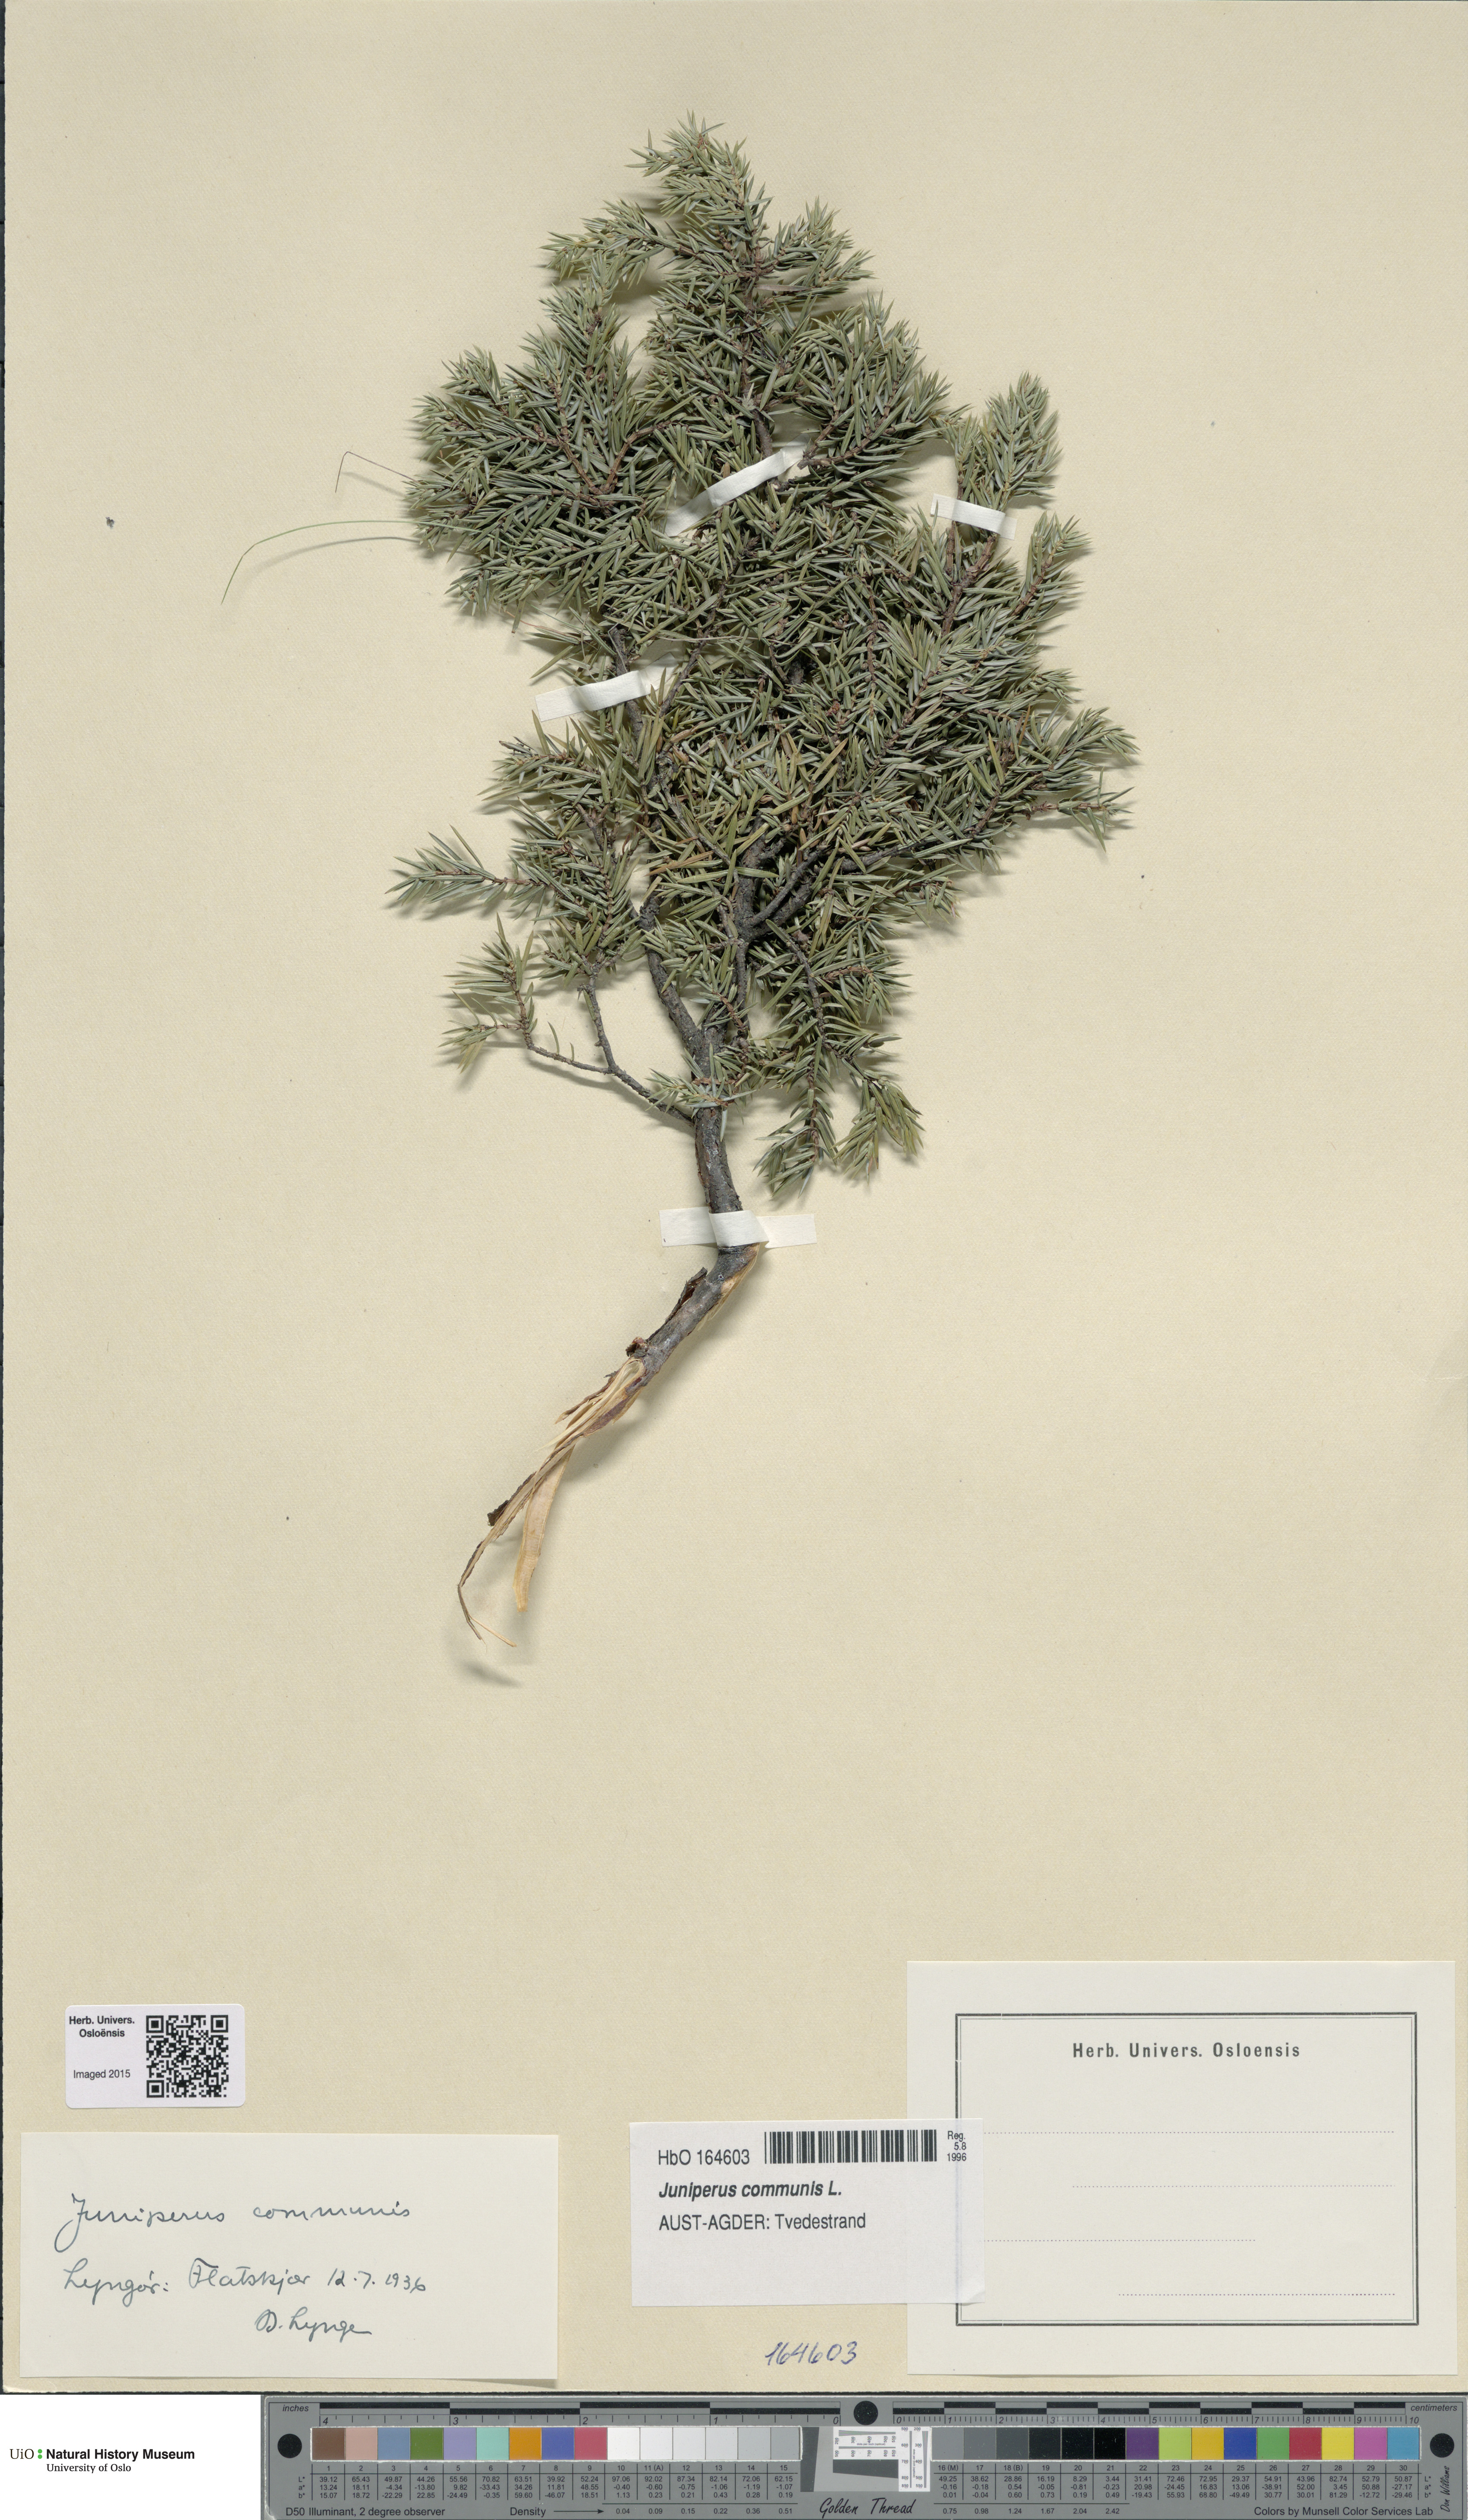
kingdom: Plantae
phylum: Tracheophyta
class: Pinopsida
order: Pinales
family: Cupressaceae
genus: Juniperus
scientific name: Juniperus communis
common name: Common juniper
